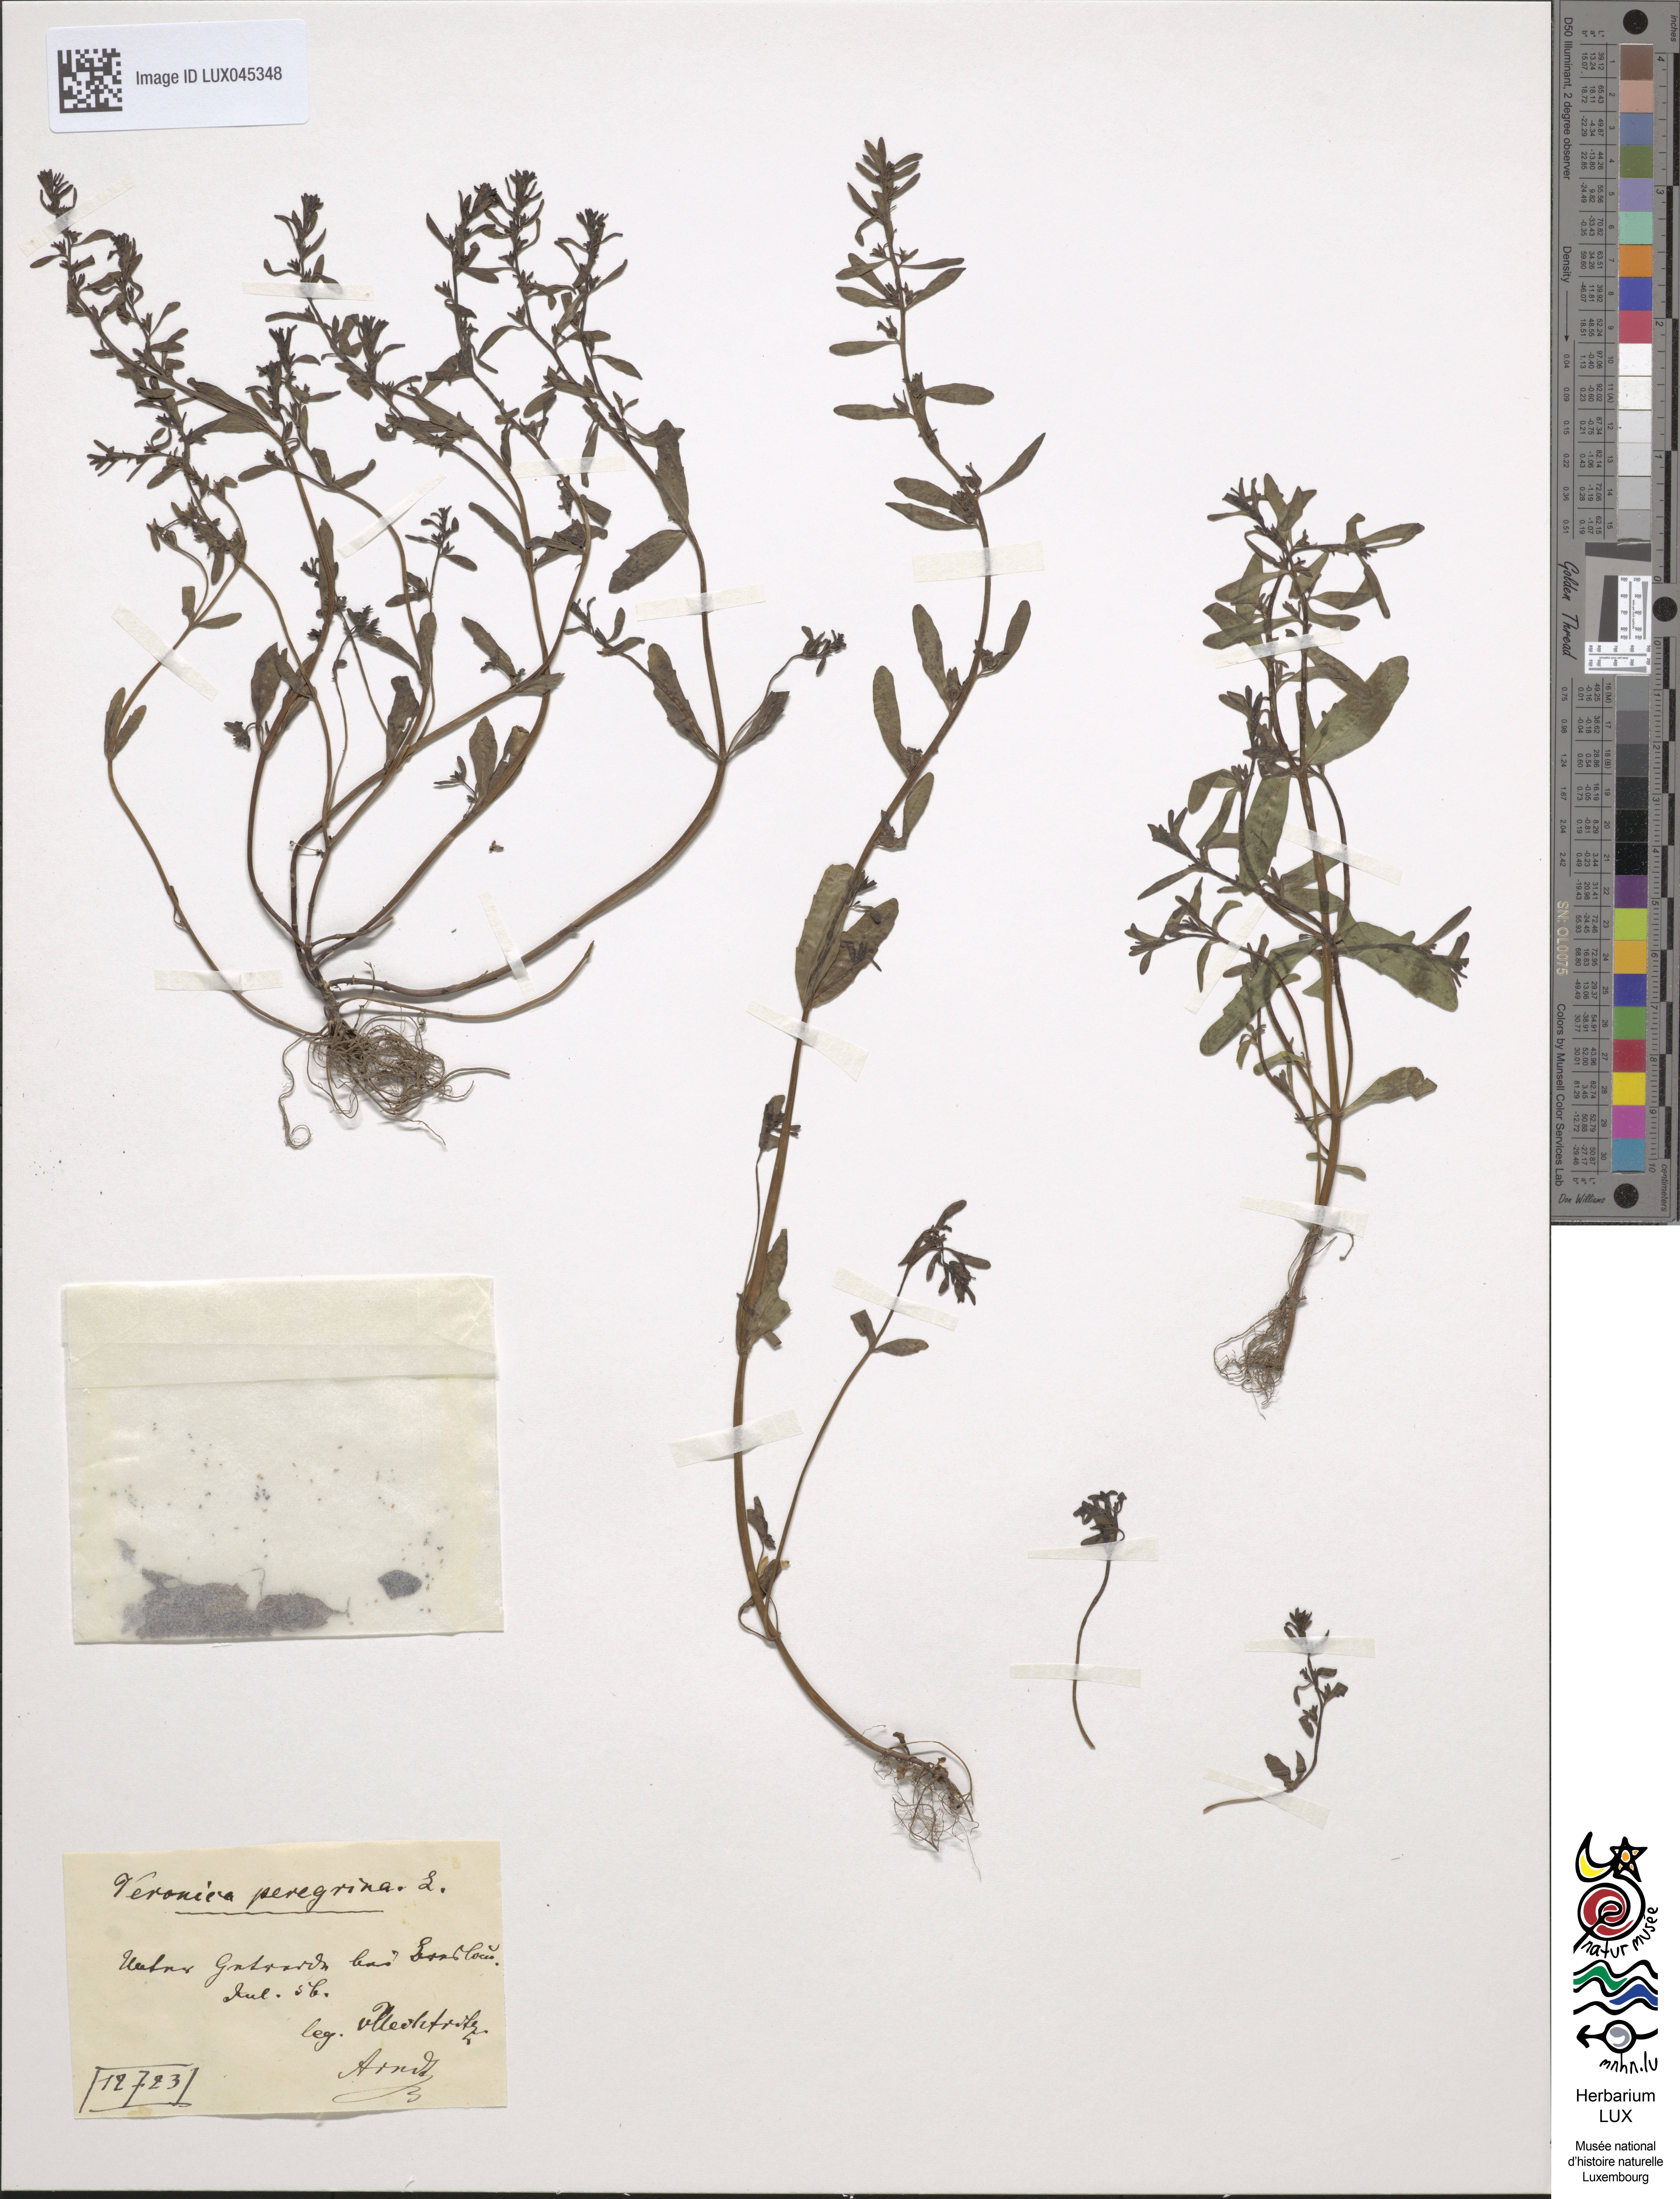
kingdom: Plantae
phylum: Tracheophyta
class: Magnoliopsida
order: Lamiales
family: Plantaginaceae
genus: Veronica
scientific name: Veronica peregrina
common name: Neckweed
